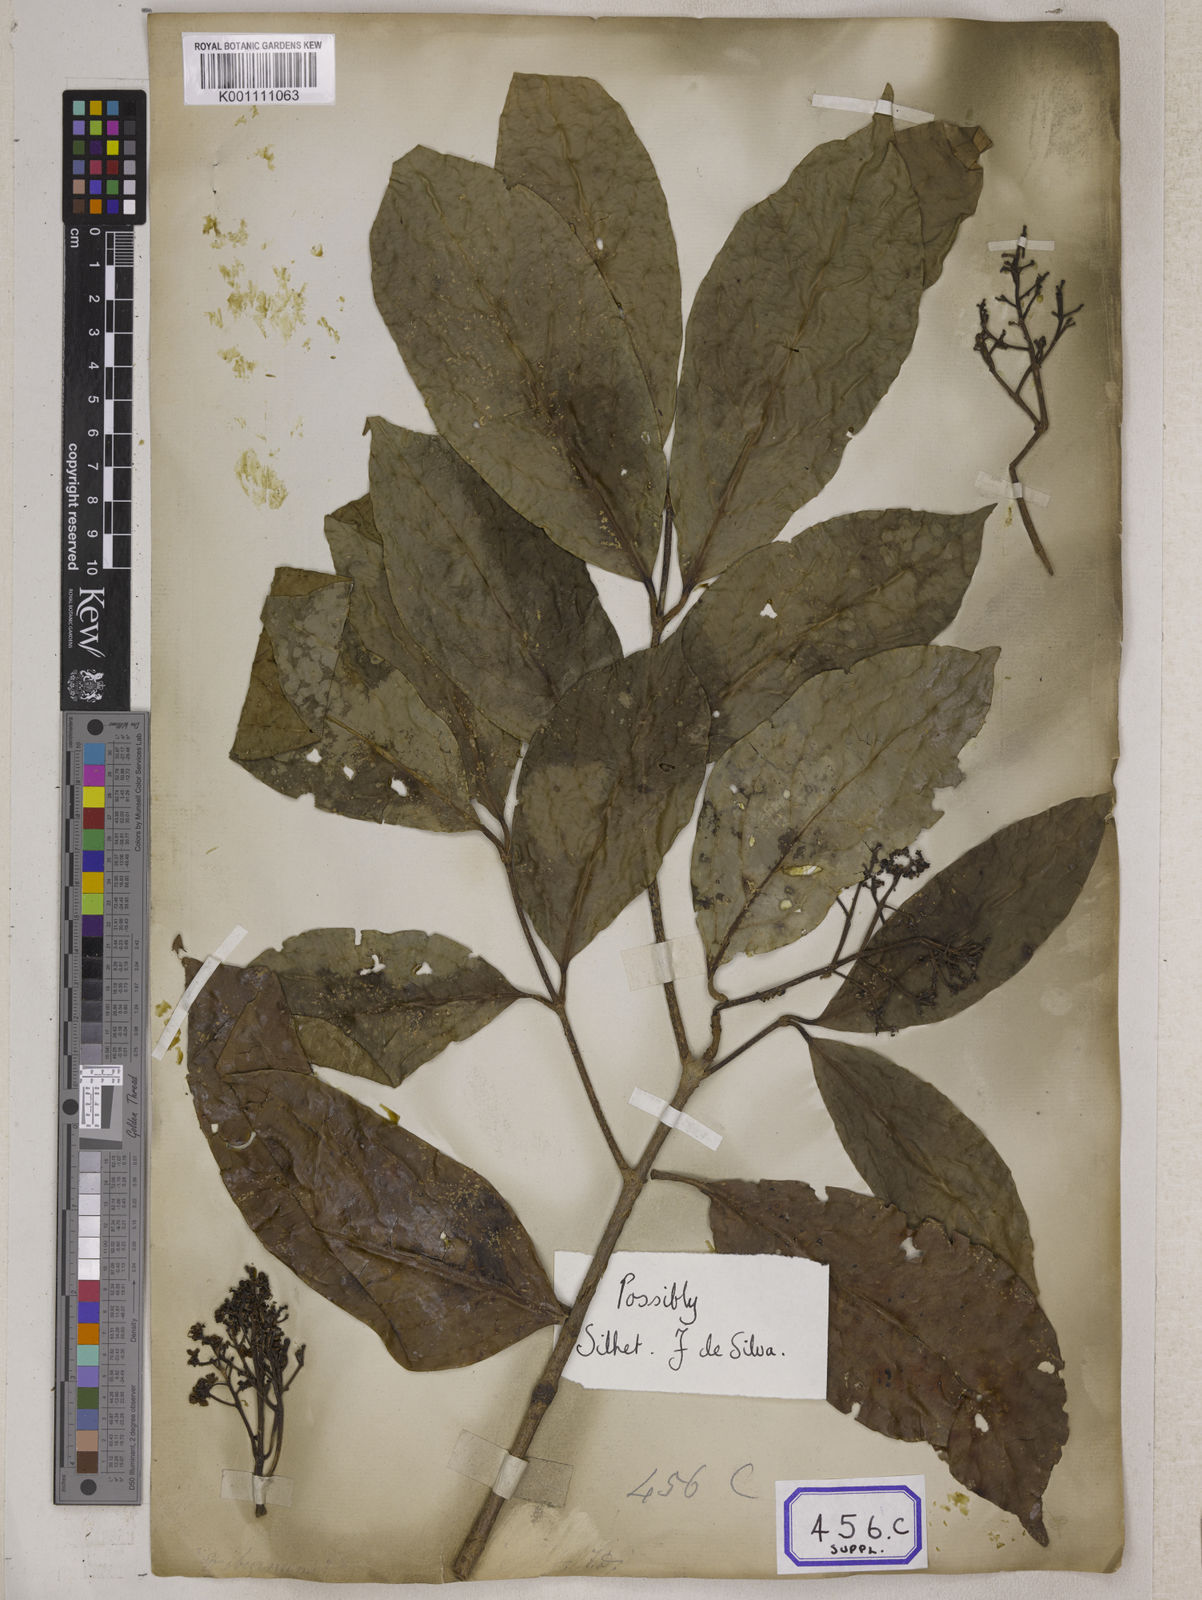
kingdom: Plantae
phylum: Tracheophyta
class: Magnoliopsida
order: Dipsacales
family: Viburnaceae
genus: Viburnum
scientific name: Viburnum
